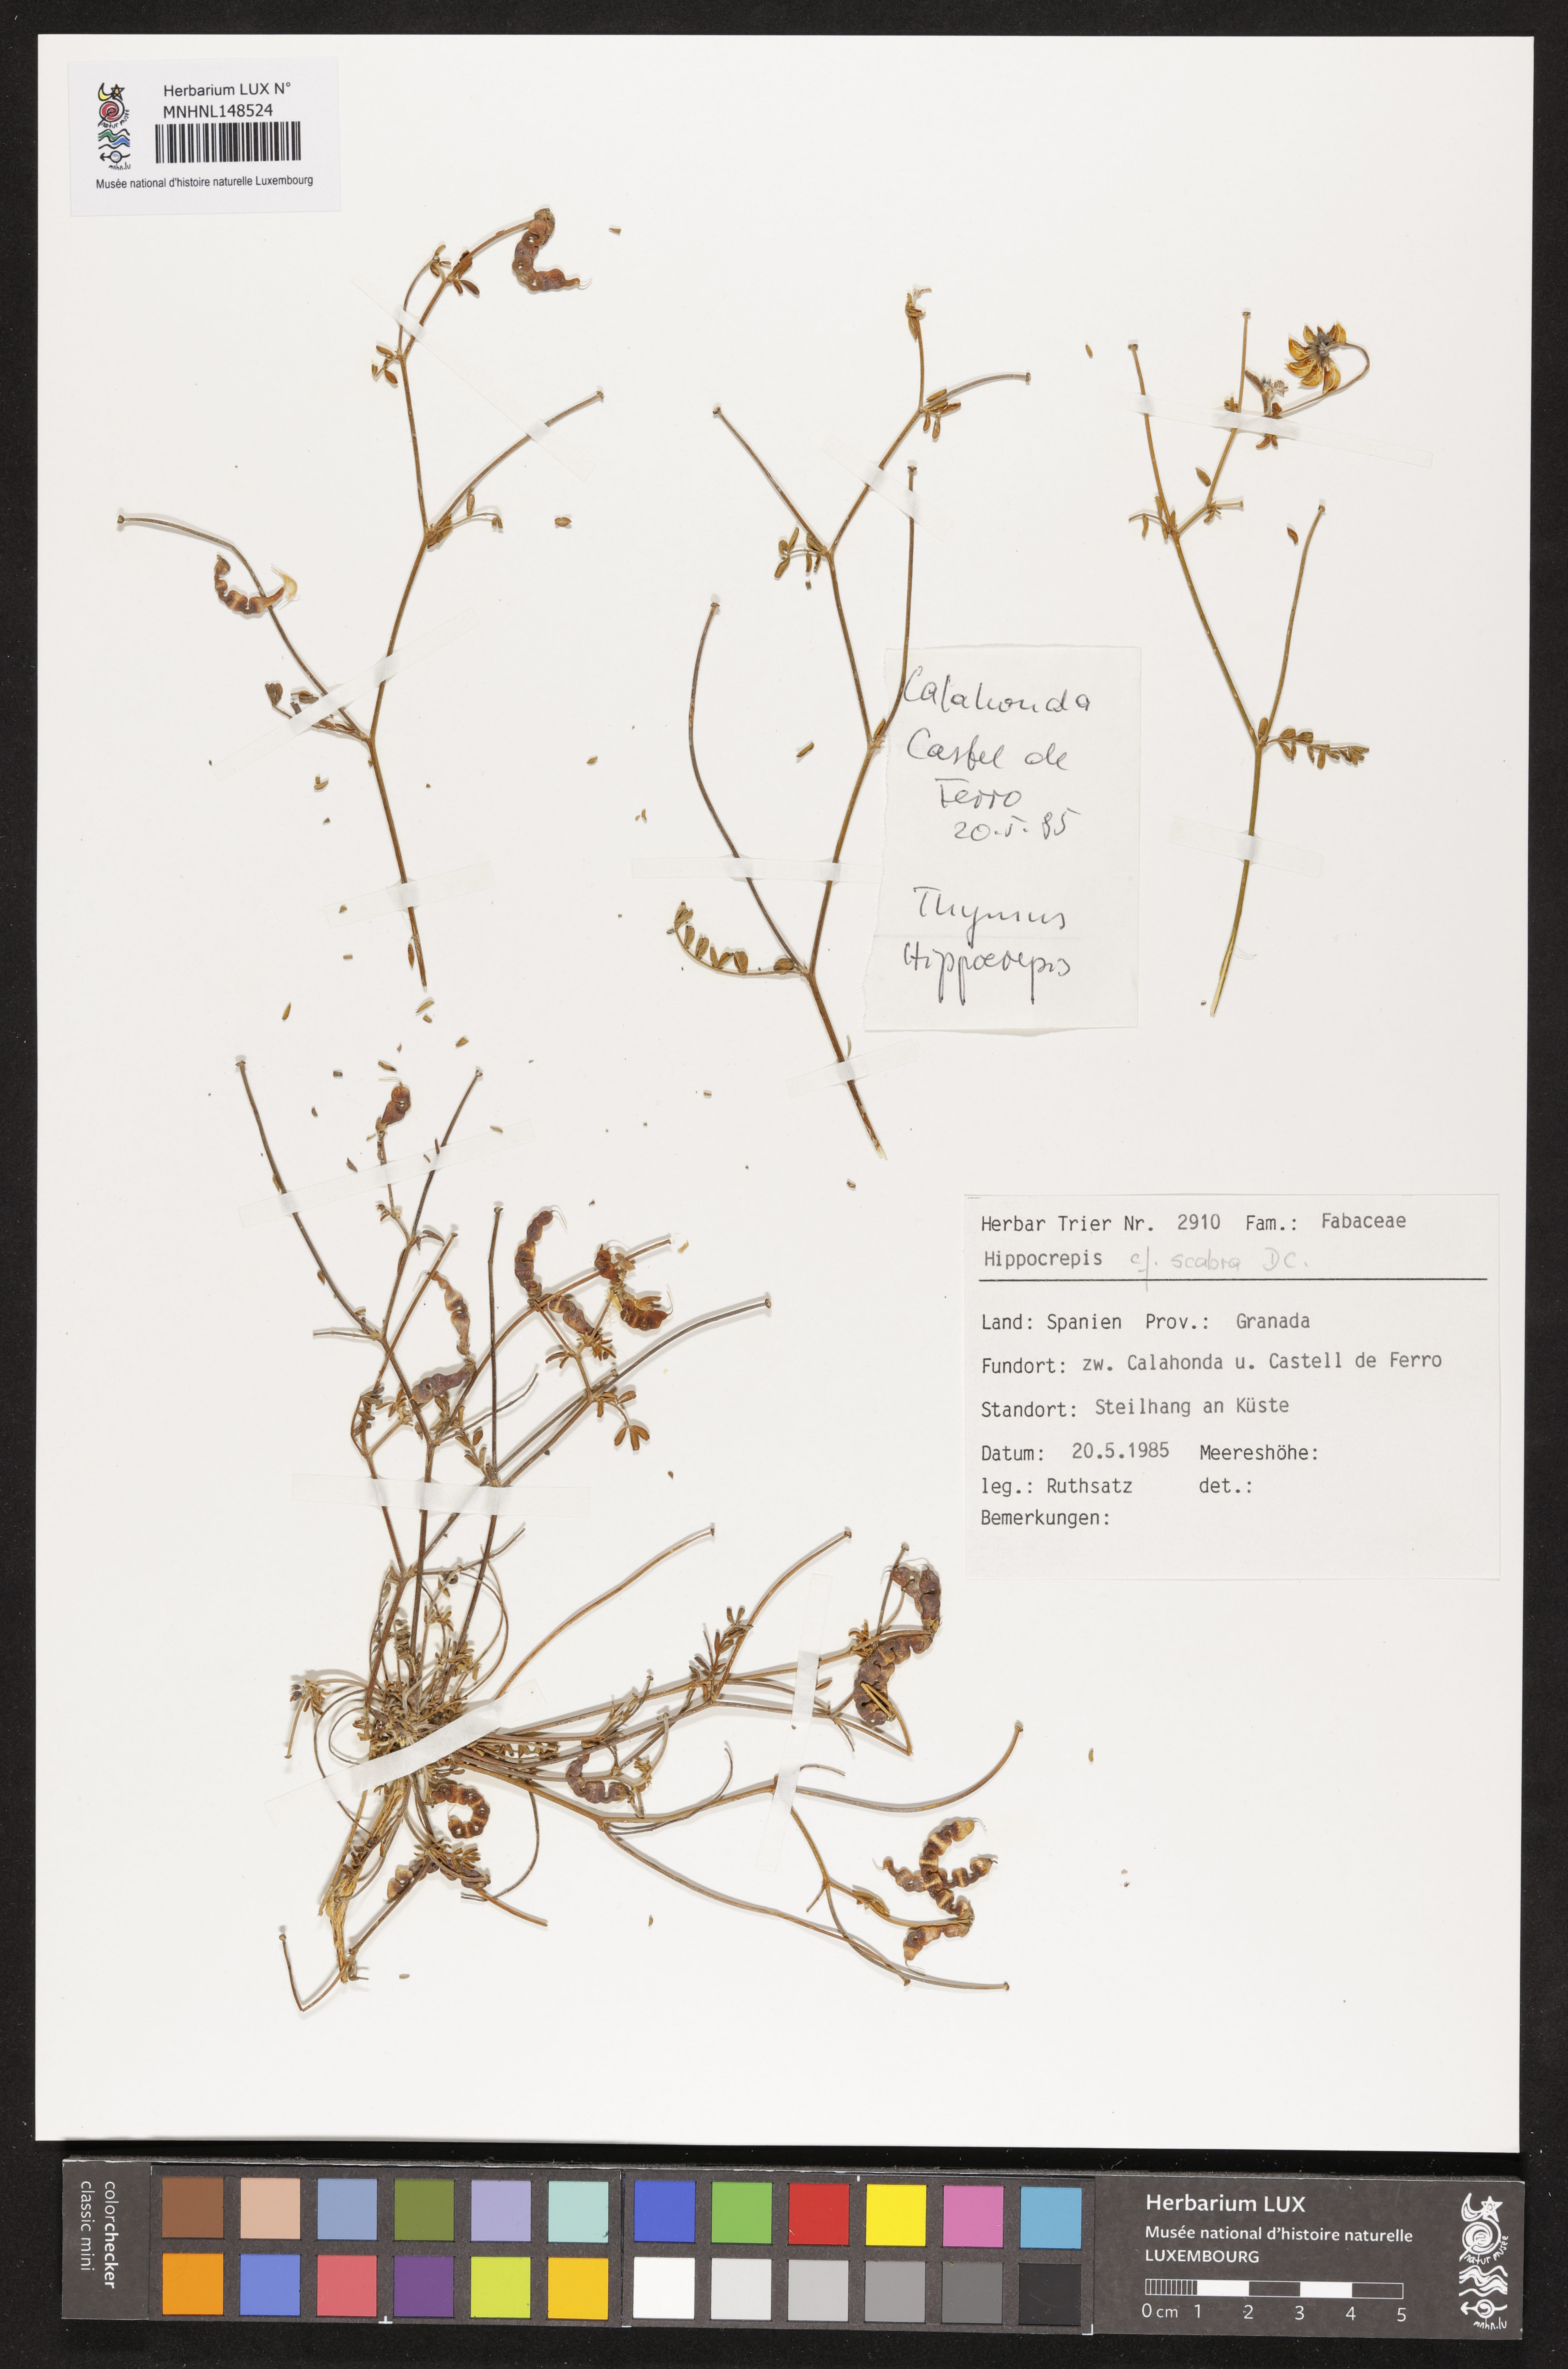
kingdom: Plantae
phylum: Tracheophyta
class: Magnoliopsida
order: Fabales
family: Fabaceae
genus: Hippocrepis
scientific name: Hippocrepis scabra
